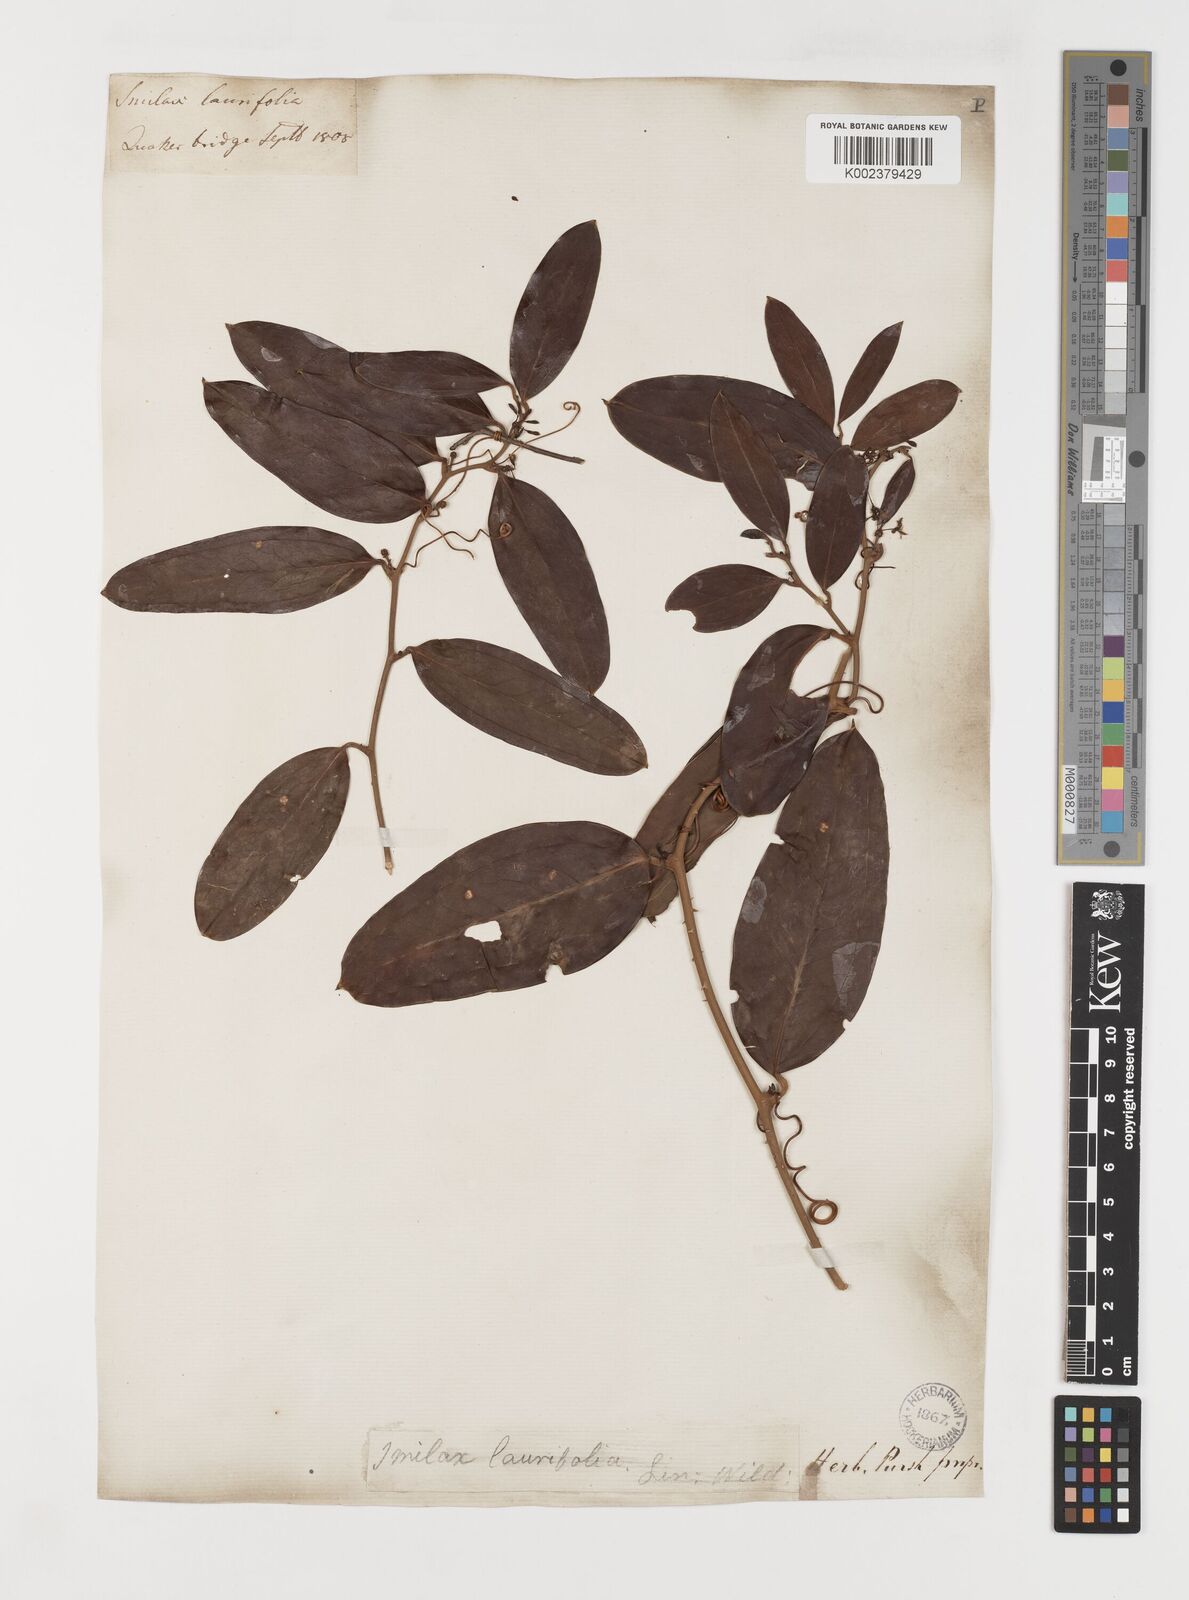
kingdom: Plantae
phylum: Tracheophyta
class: Liliopsida
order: Liliales
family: Smilacaceae
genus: Smilax
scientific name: Smilax laurifolia
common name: Bamboovine
